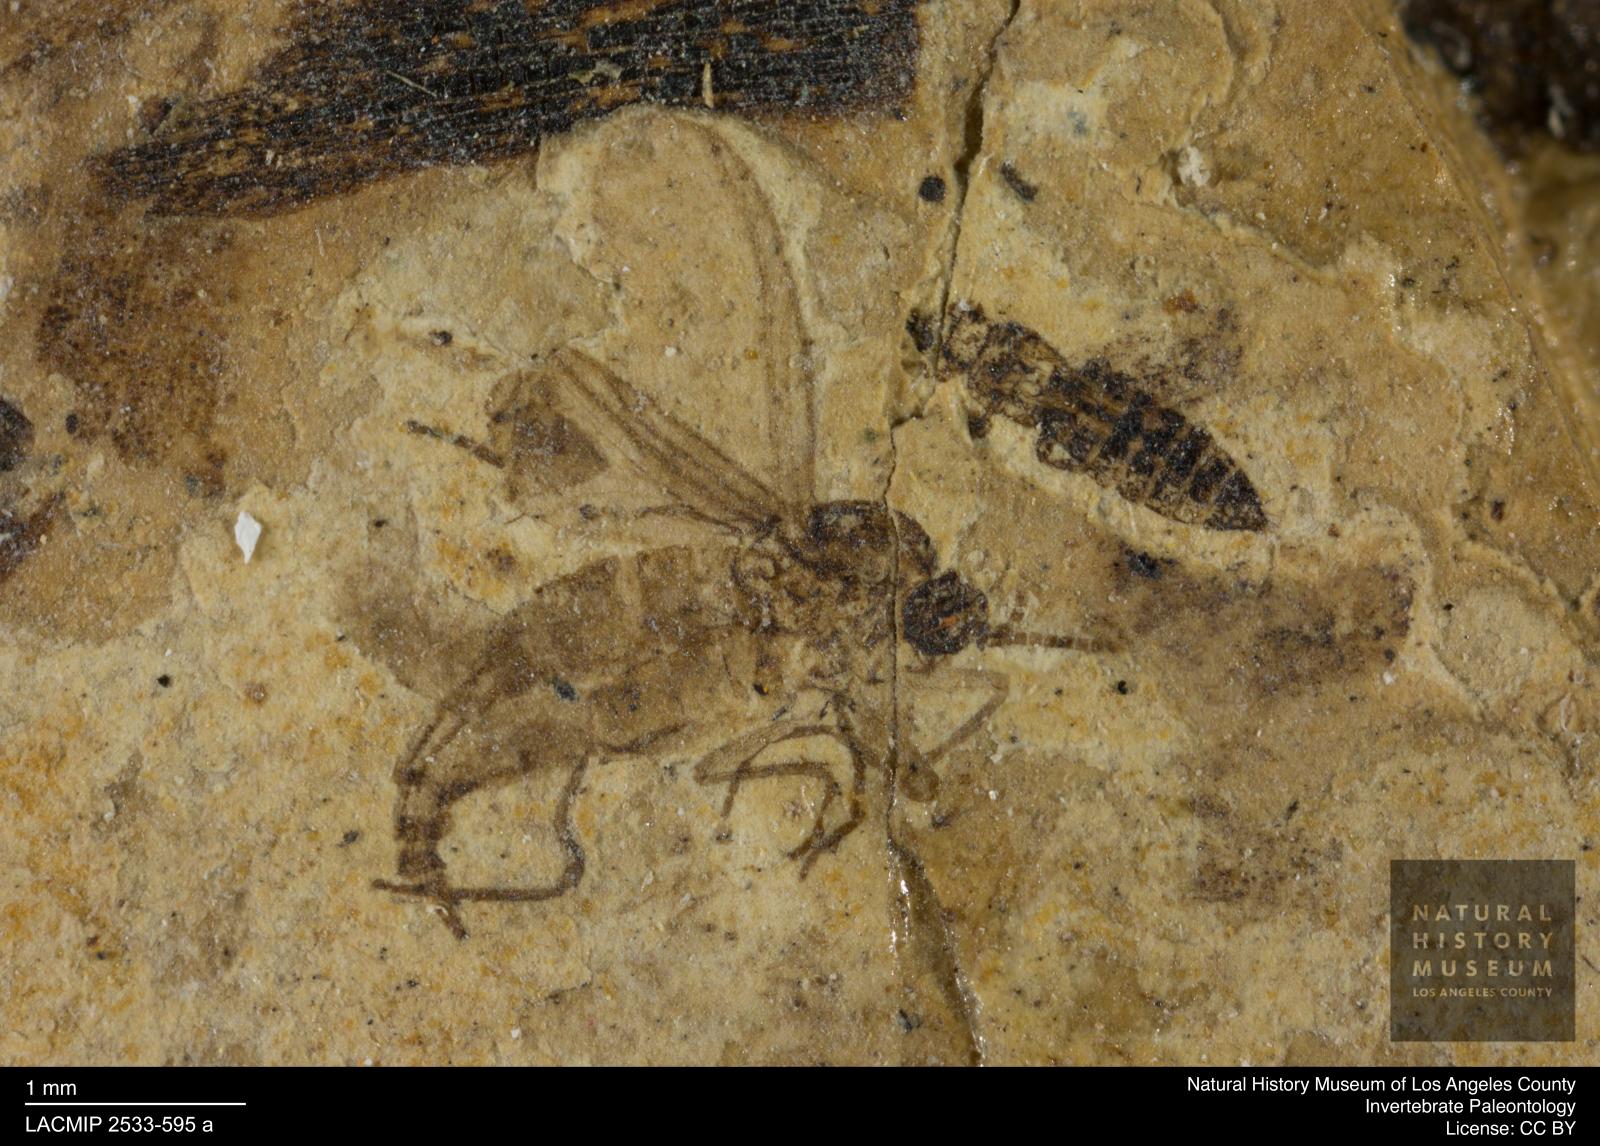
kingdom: Animalia
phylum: Arthropoda
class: Insecta
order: Diptera
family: Sciaridae
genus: Sciara
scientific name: Sciara ovalipennata
